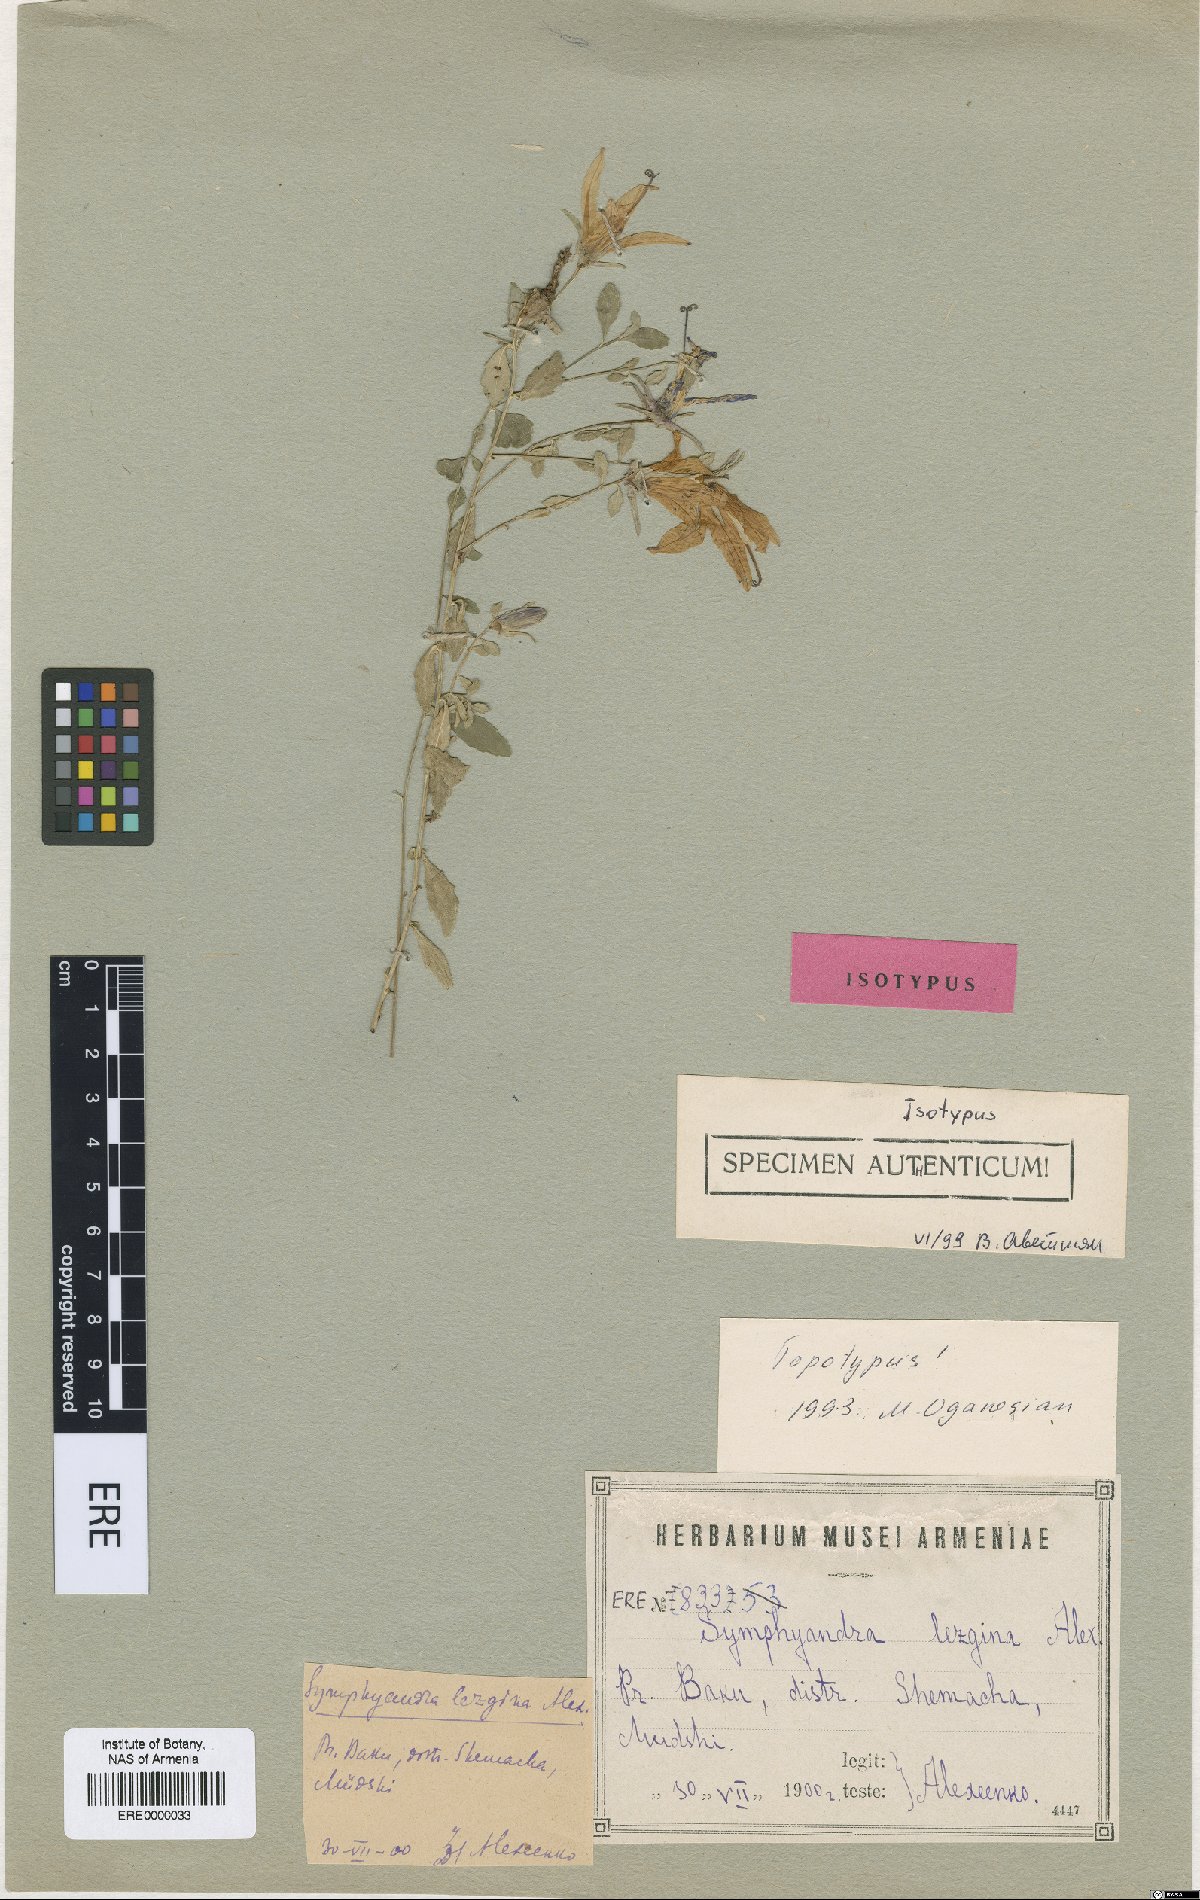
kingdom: Plantae
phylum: Tracheophyta
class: Magnoliopsida
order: Asterales
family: Campanulaceae
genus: Campanula
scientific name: Campanula lezgina
